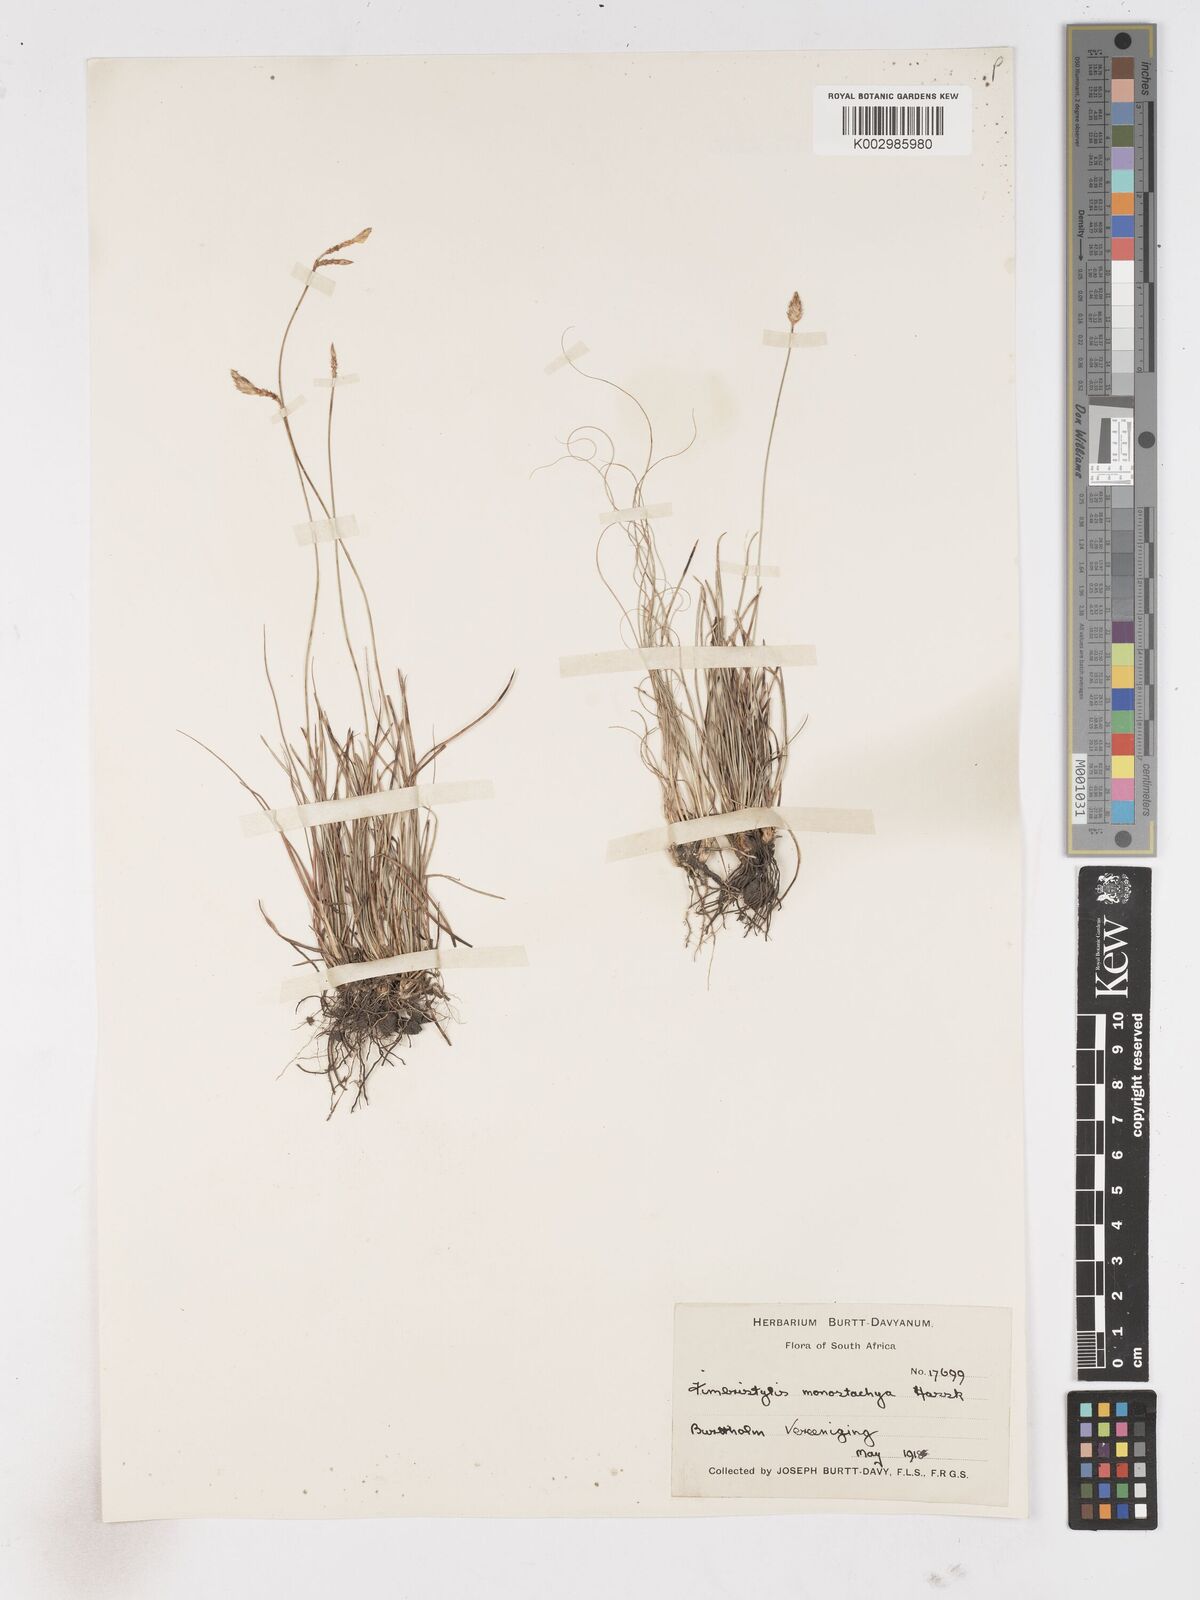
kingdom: Plantae
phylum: Tracheophyta
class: Liliopsida
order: Poales
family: Cyperaceae
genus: Abildgaardia
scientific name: Abildgaardia ovata
